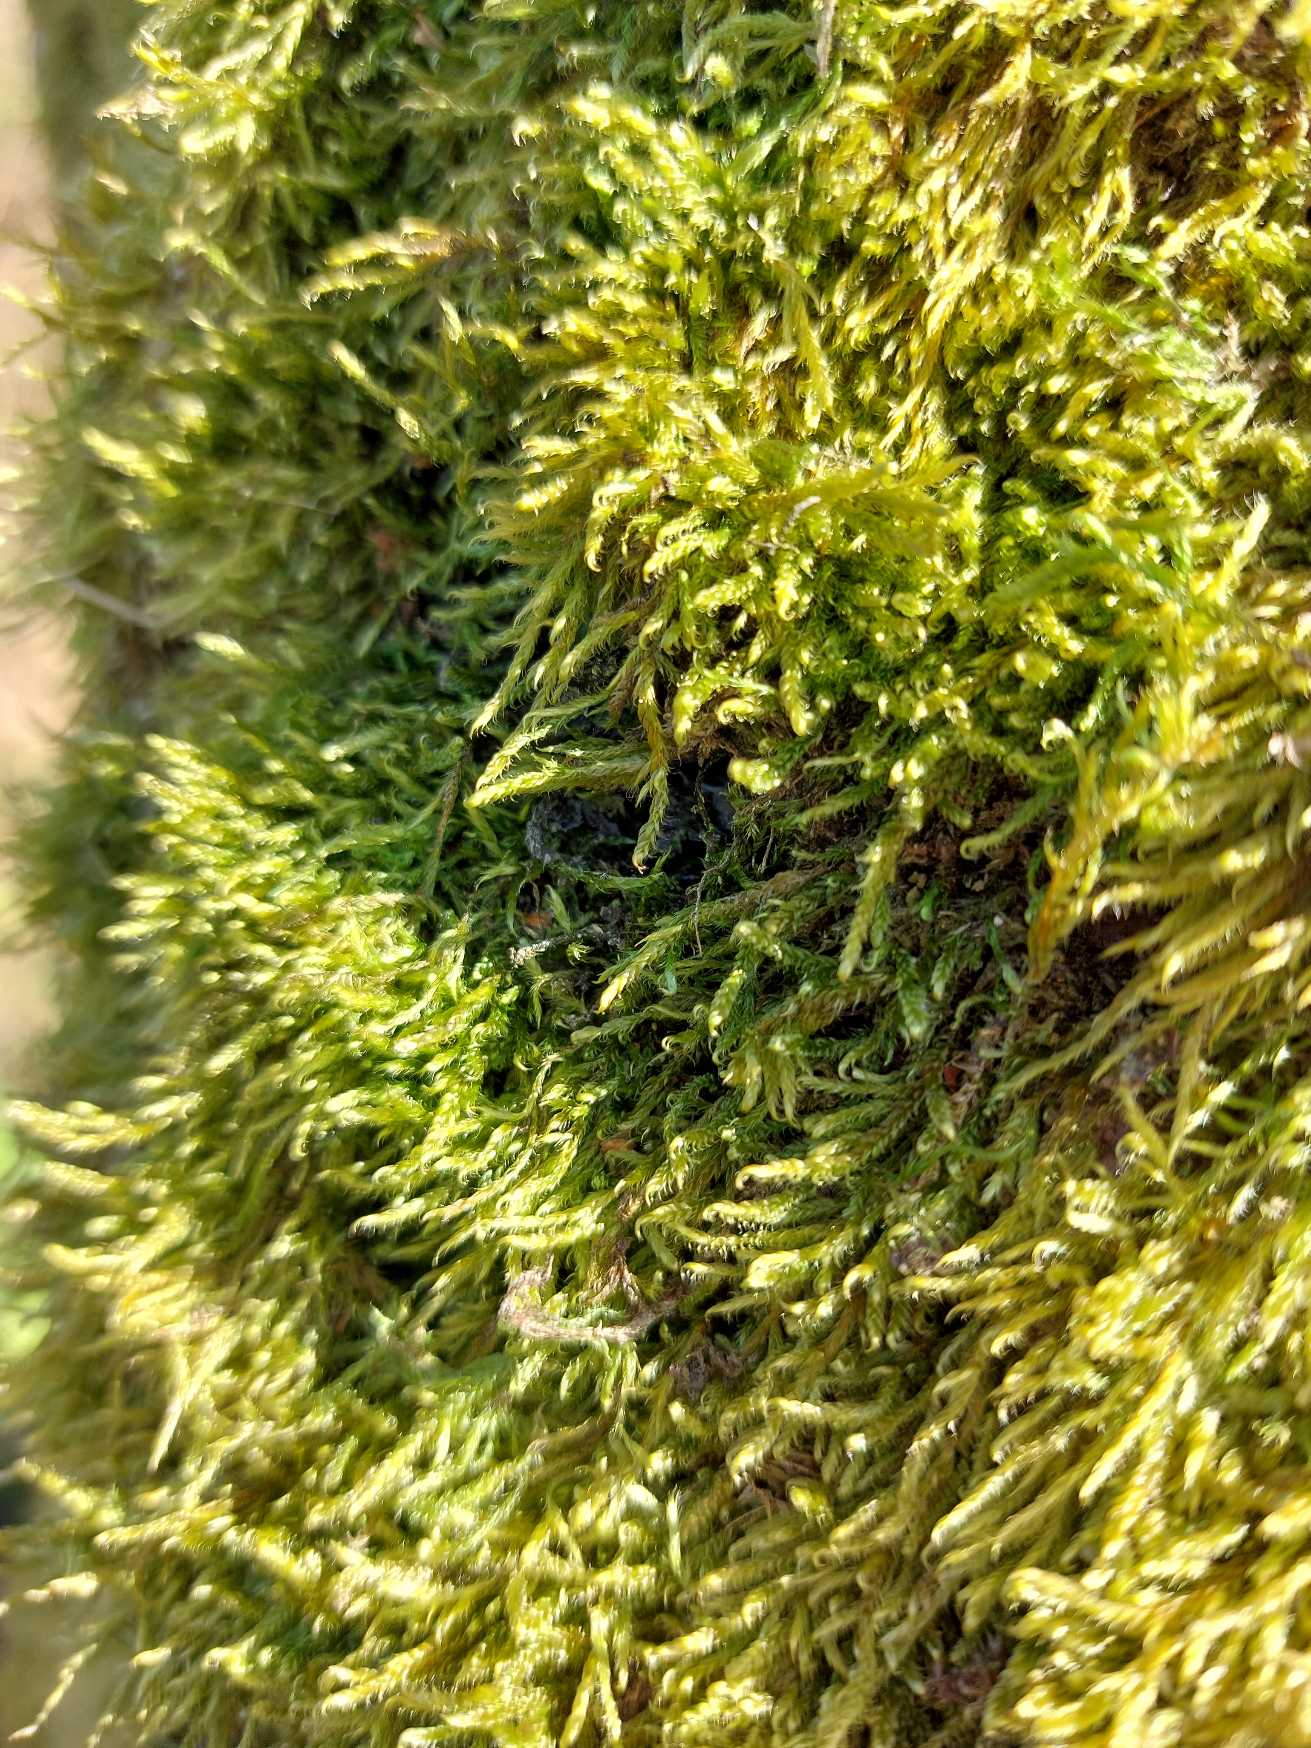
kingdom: Plantae
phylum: Bryophyta
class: Bryopsida
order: Hypnales
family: Hypnaceae
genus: Hypnum
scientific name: Hypnum cupressiforme
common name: Almindelig cypresmos
